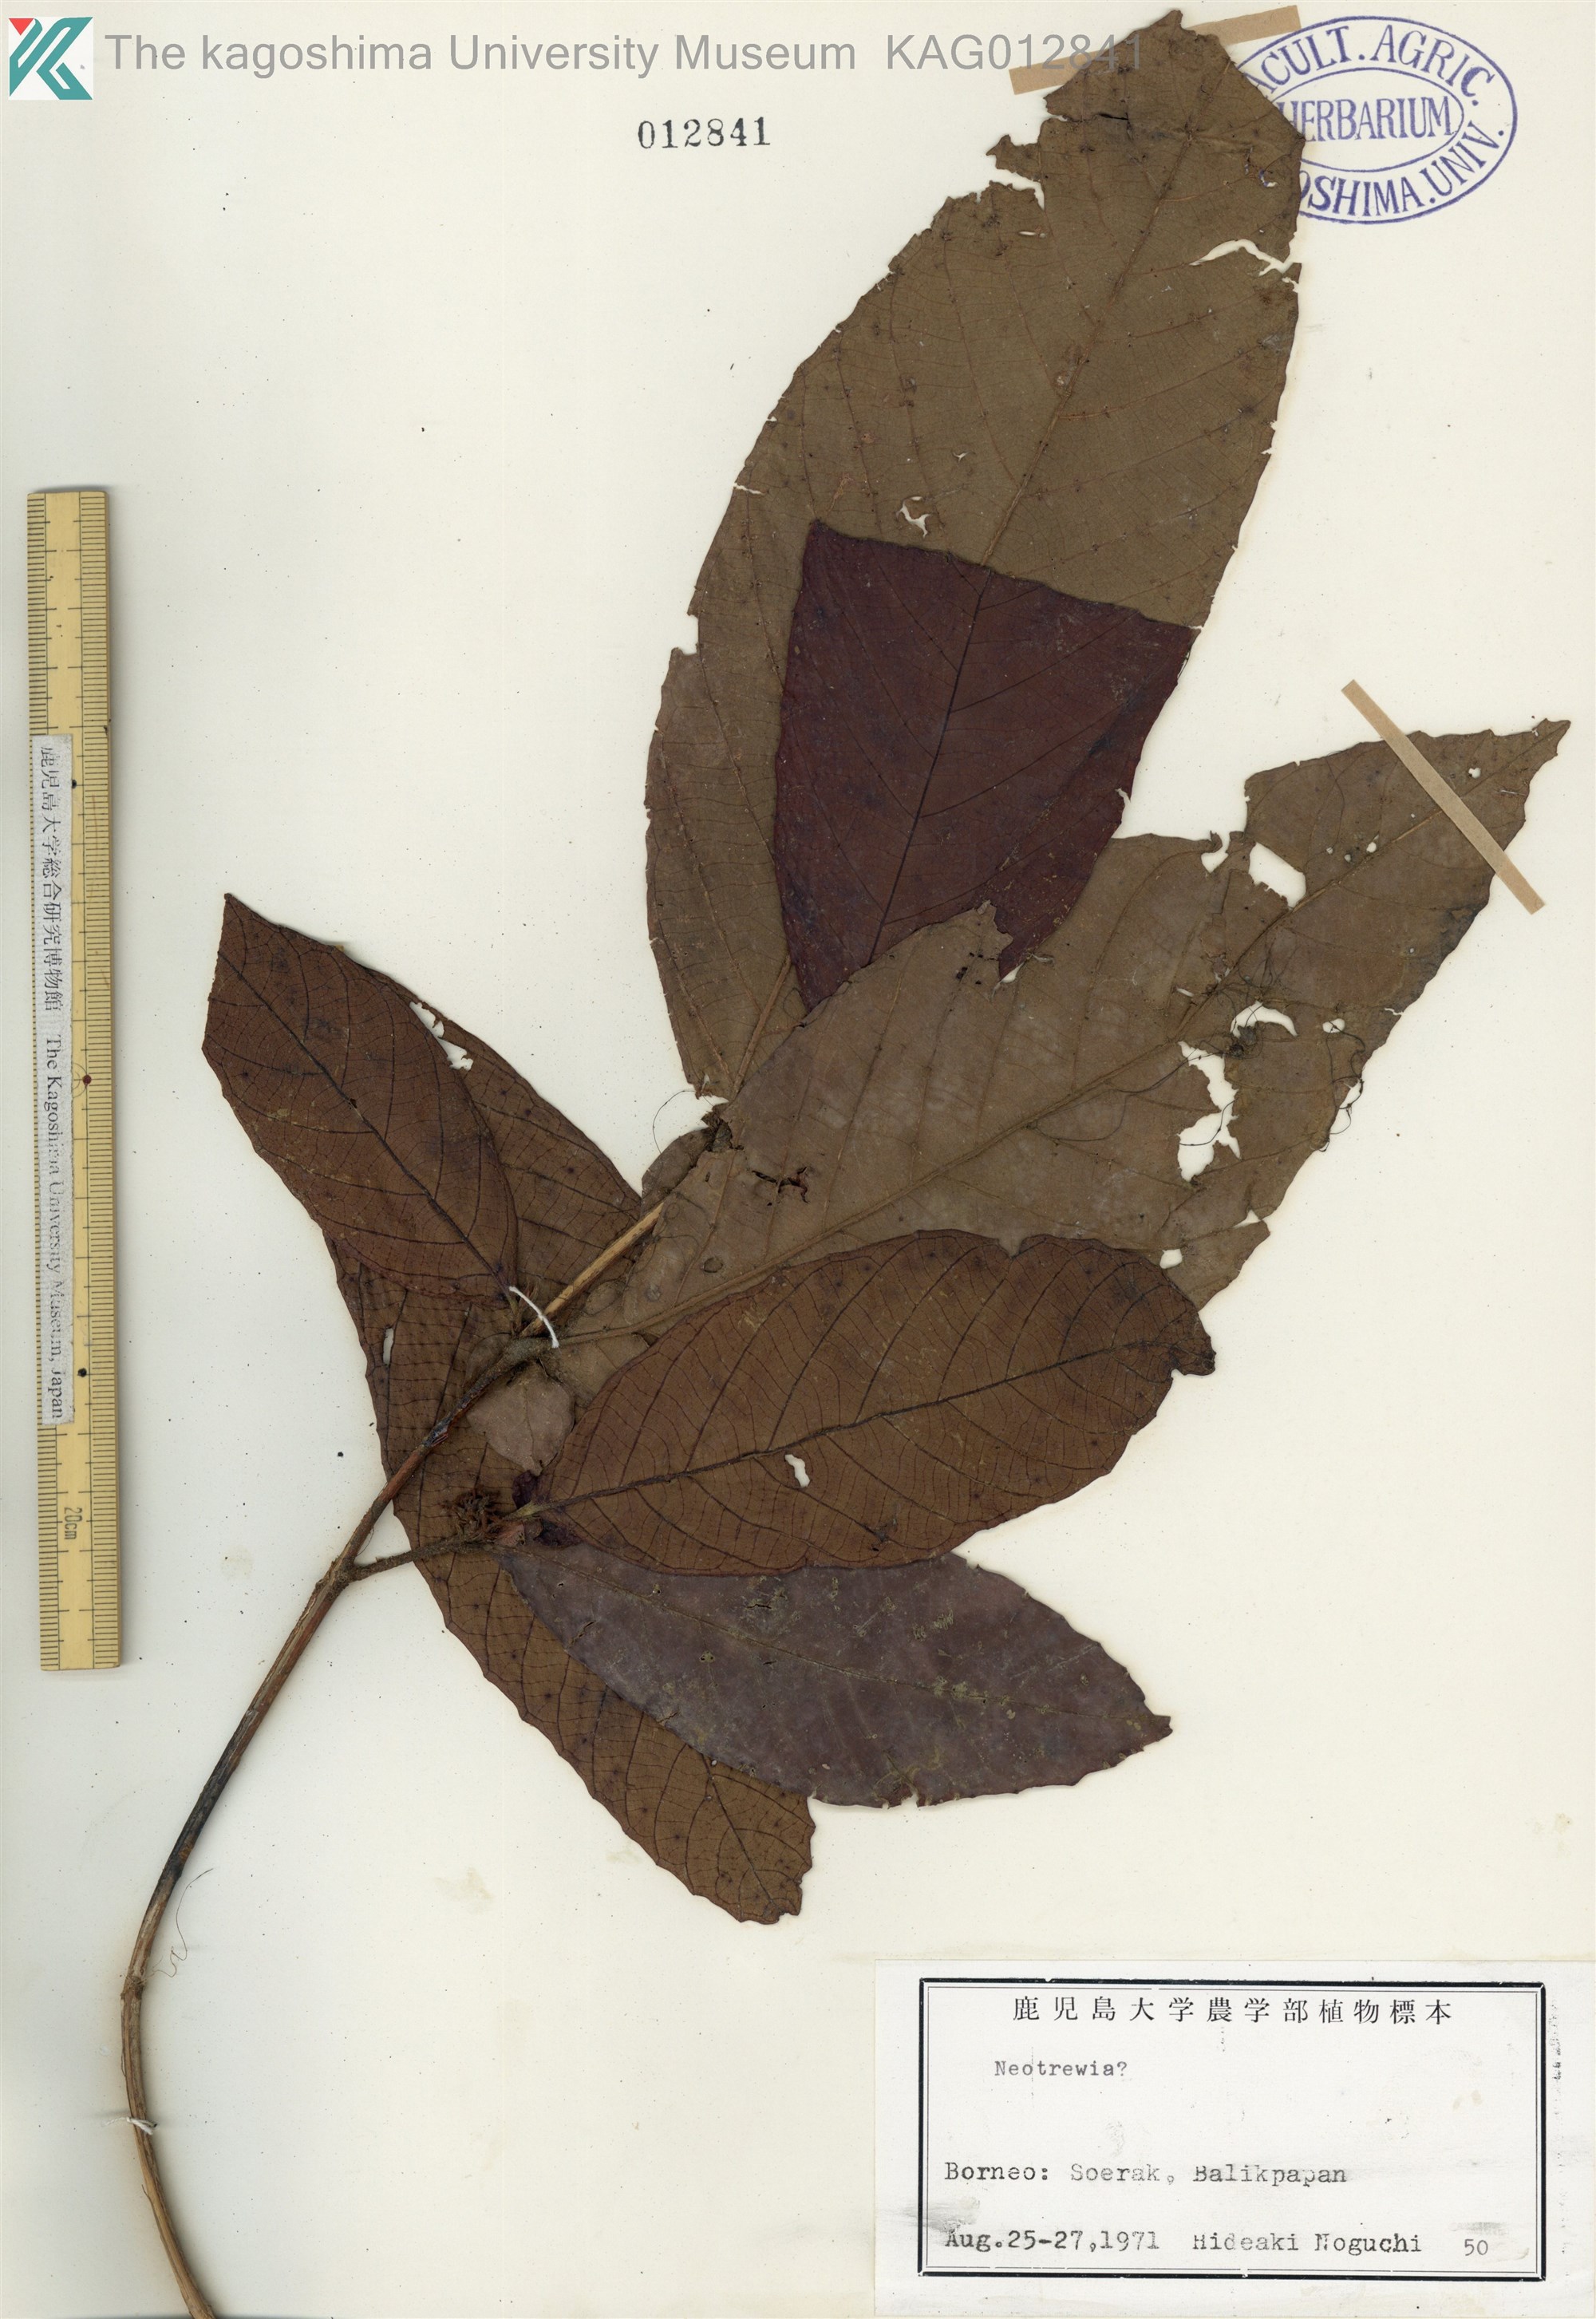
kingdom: Plantae
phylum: Tracheophyta
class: Magnoliopsida
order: Malpighiales
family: Euphorbiaceae
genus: Mallotus
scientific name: Mallotus cumingii
